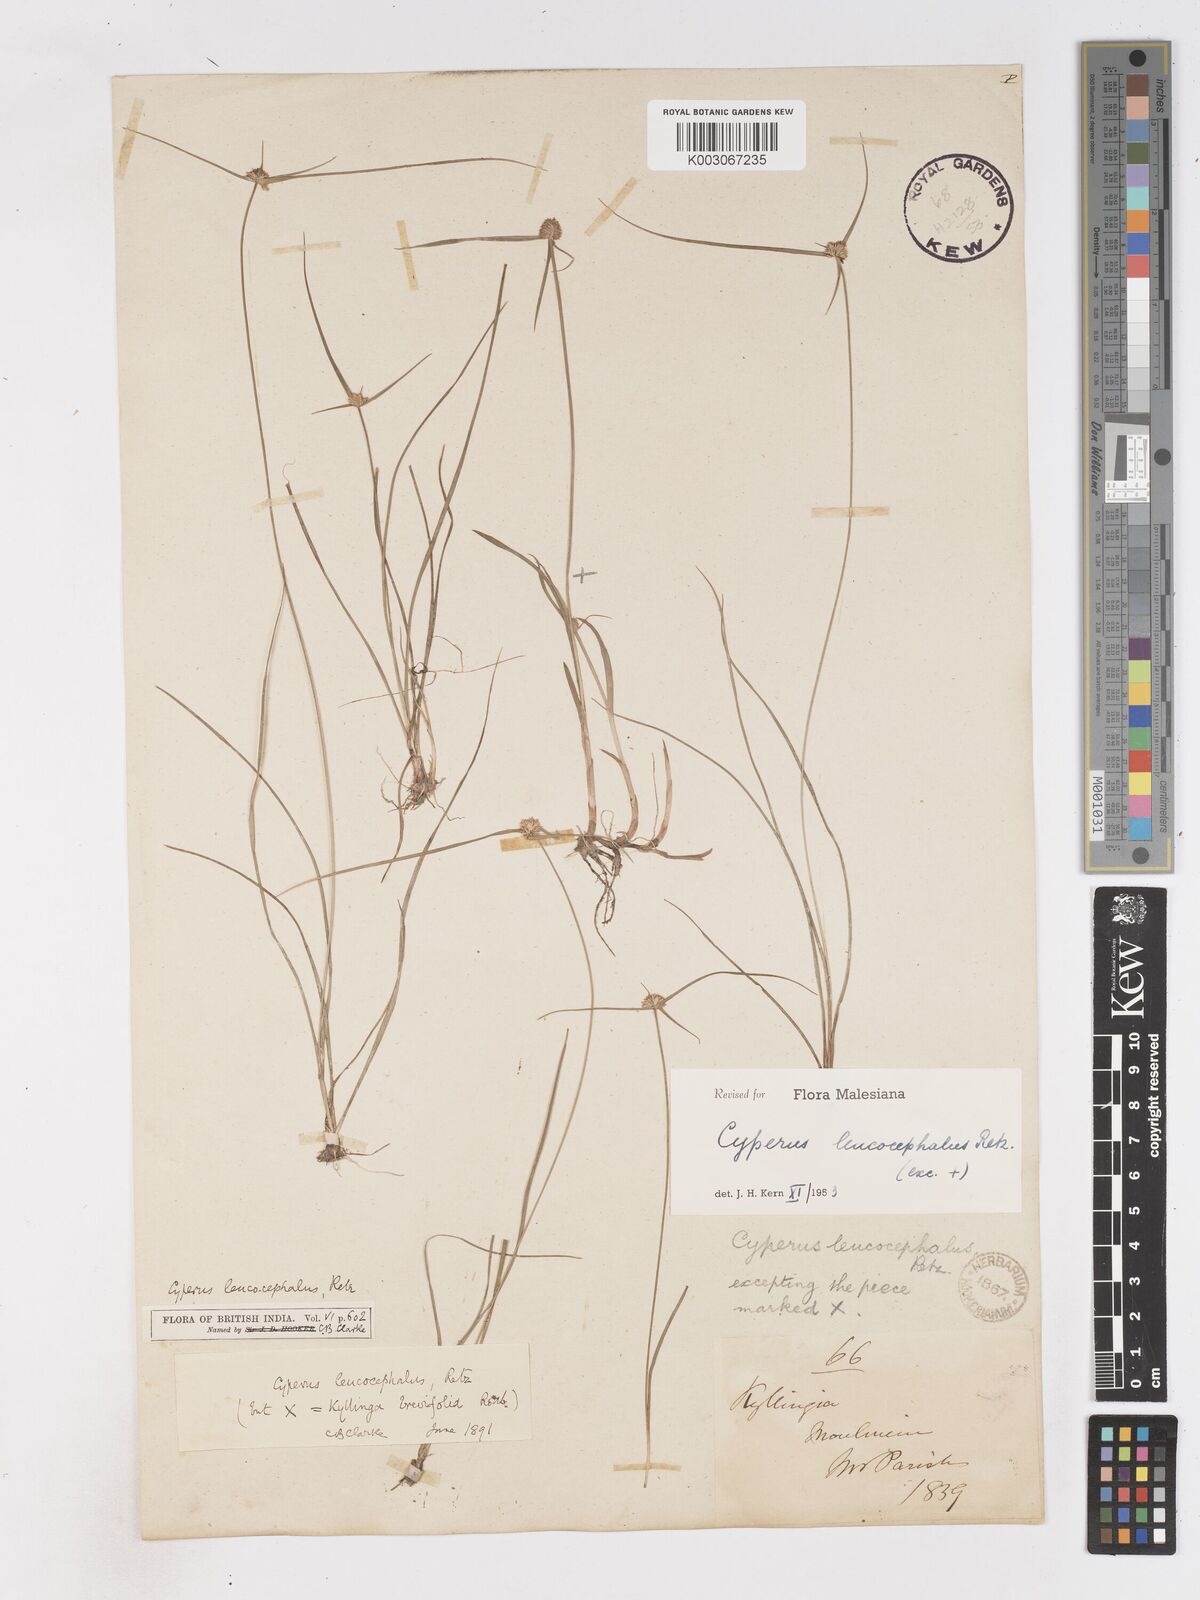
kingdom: Plantae
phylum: Tracheophyta
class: Liliopsida
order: Poales
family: Cyperaceae
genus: Cyperus
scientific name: Cyperus leucocephalus
